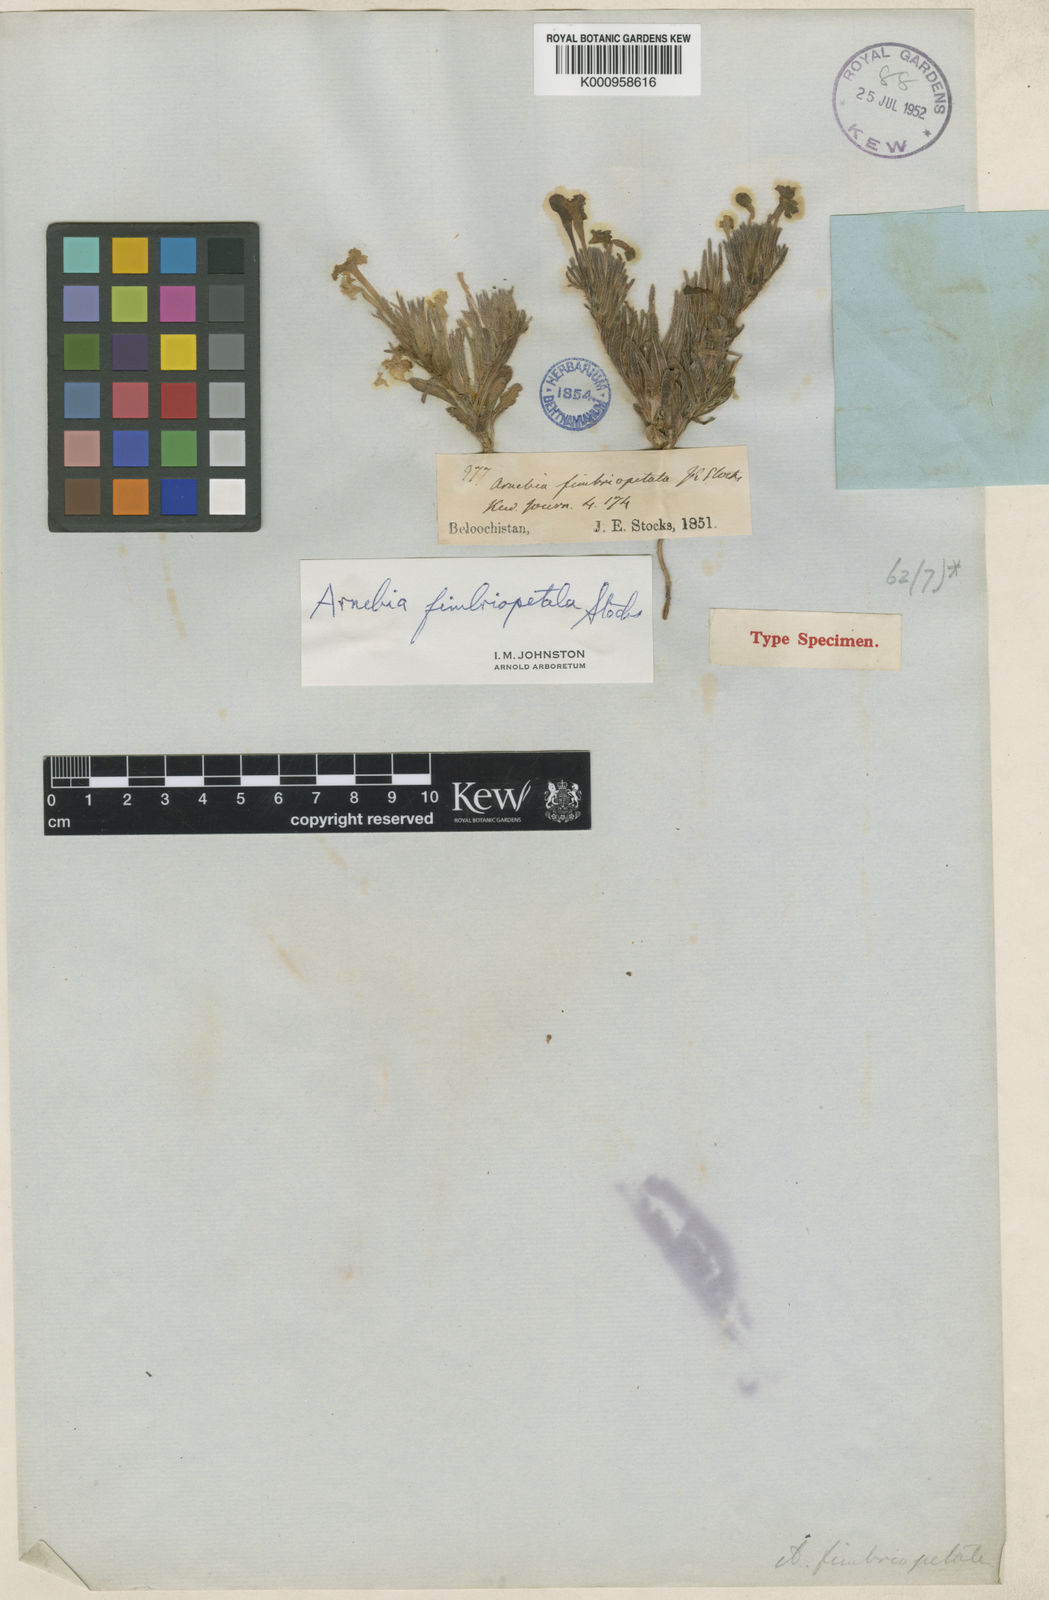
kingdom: Plantae
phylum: Tracheophyta
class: Magnoliopsida
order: Boraginales
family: Boraginaceae
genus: Arnebia
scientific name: Arnebia fimbriopetala
